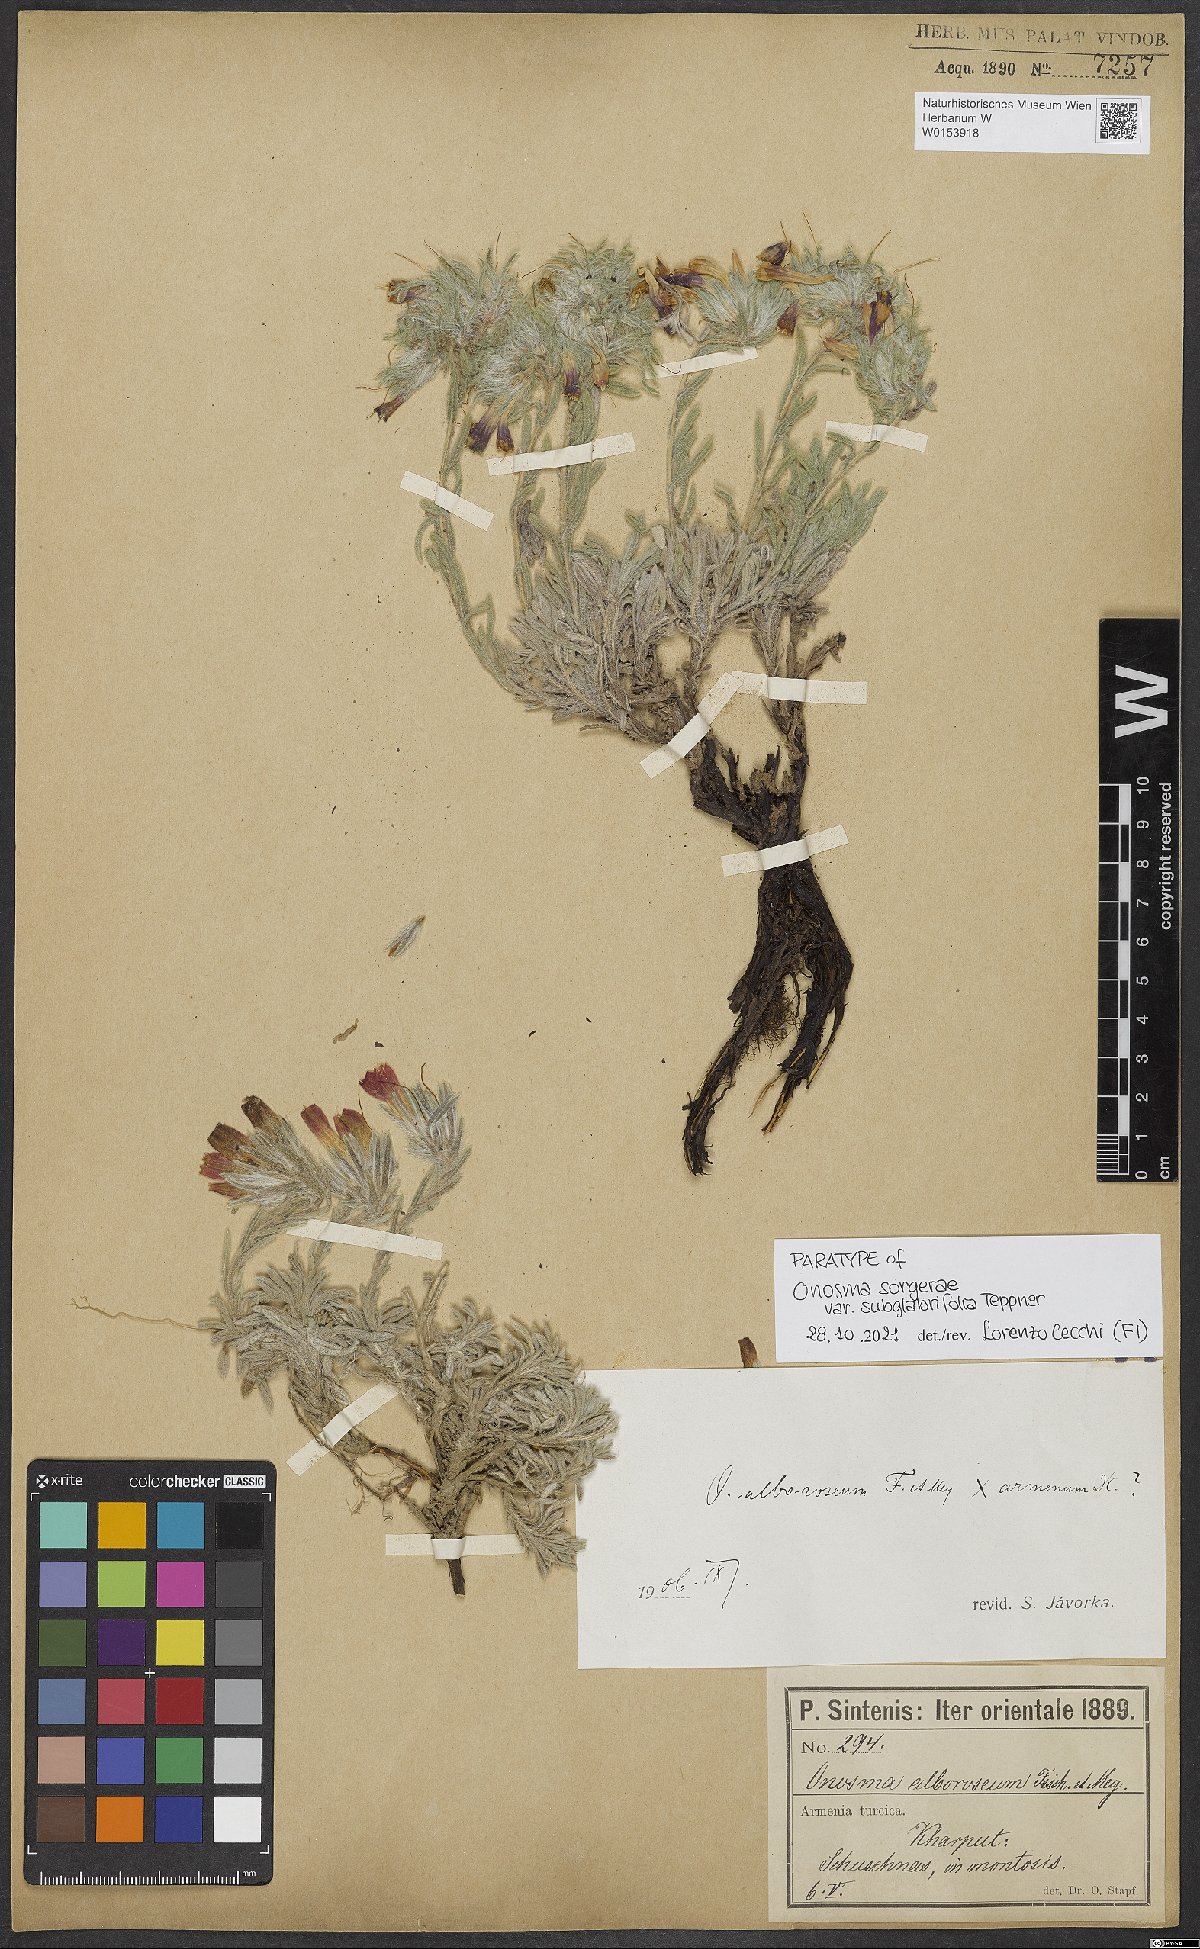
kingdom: Plantae
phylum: Tracheophyta
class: Magnoliopsida
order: Boraginales
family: Boraginaceae
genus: Onosma
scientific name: Onosma sorgerae
